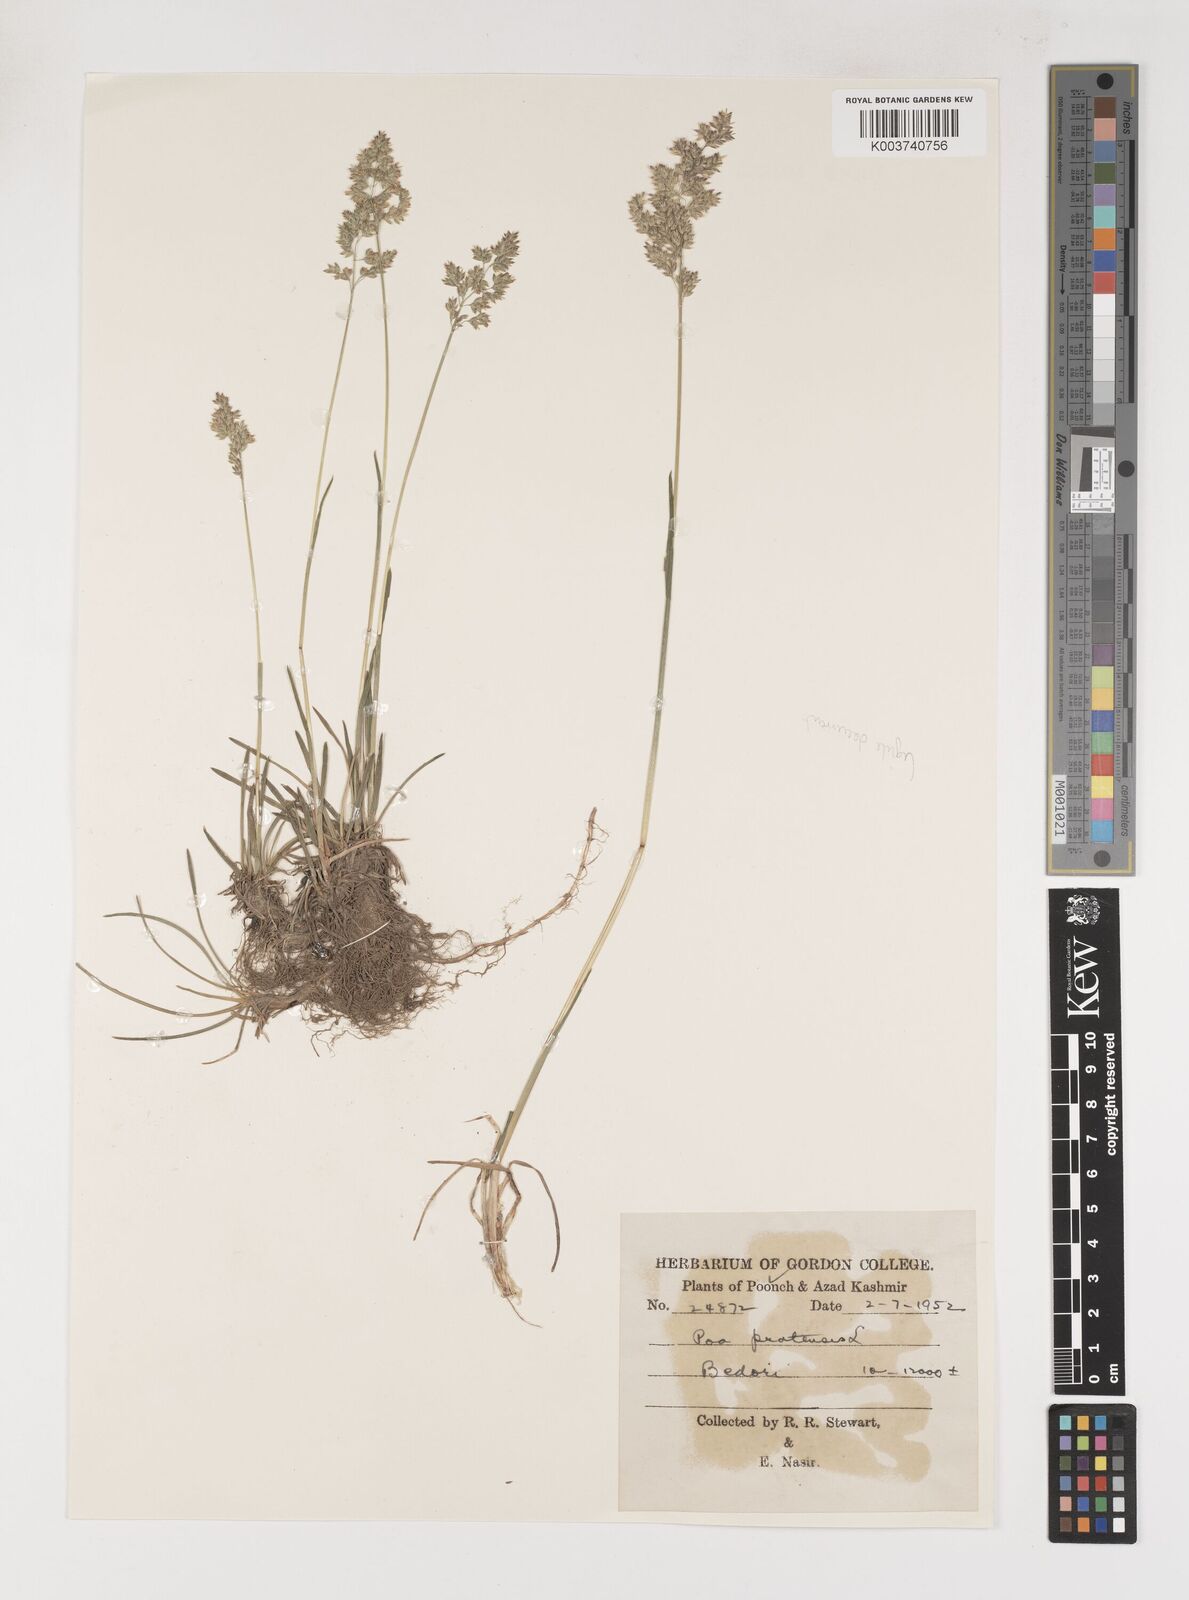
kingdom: Plantae
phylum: Tracheophyta
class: Liliopsida
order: Poales
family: Poaceae
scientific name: Poaceae
